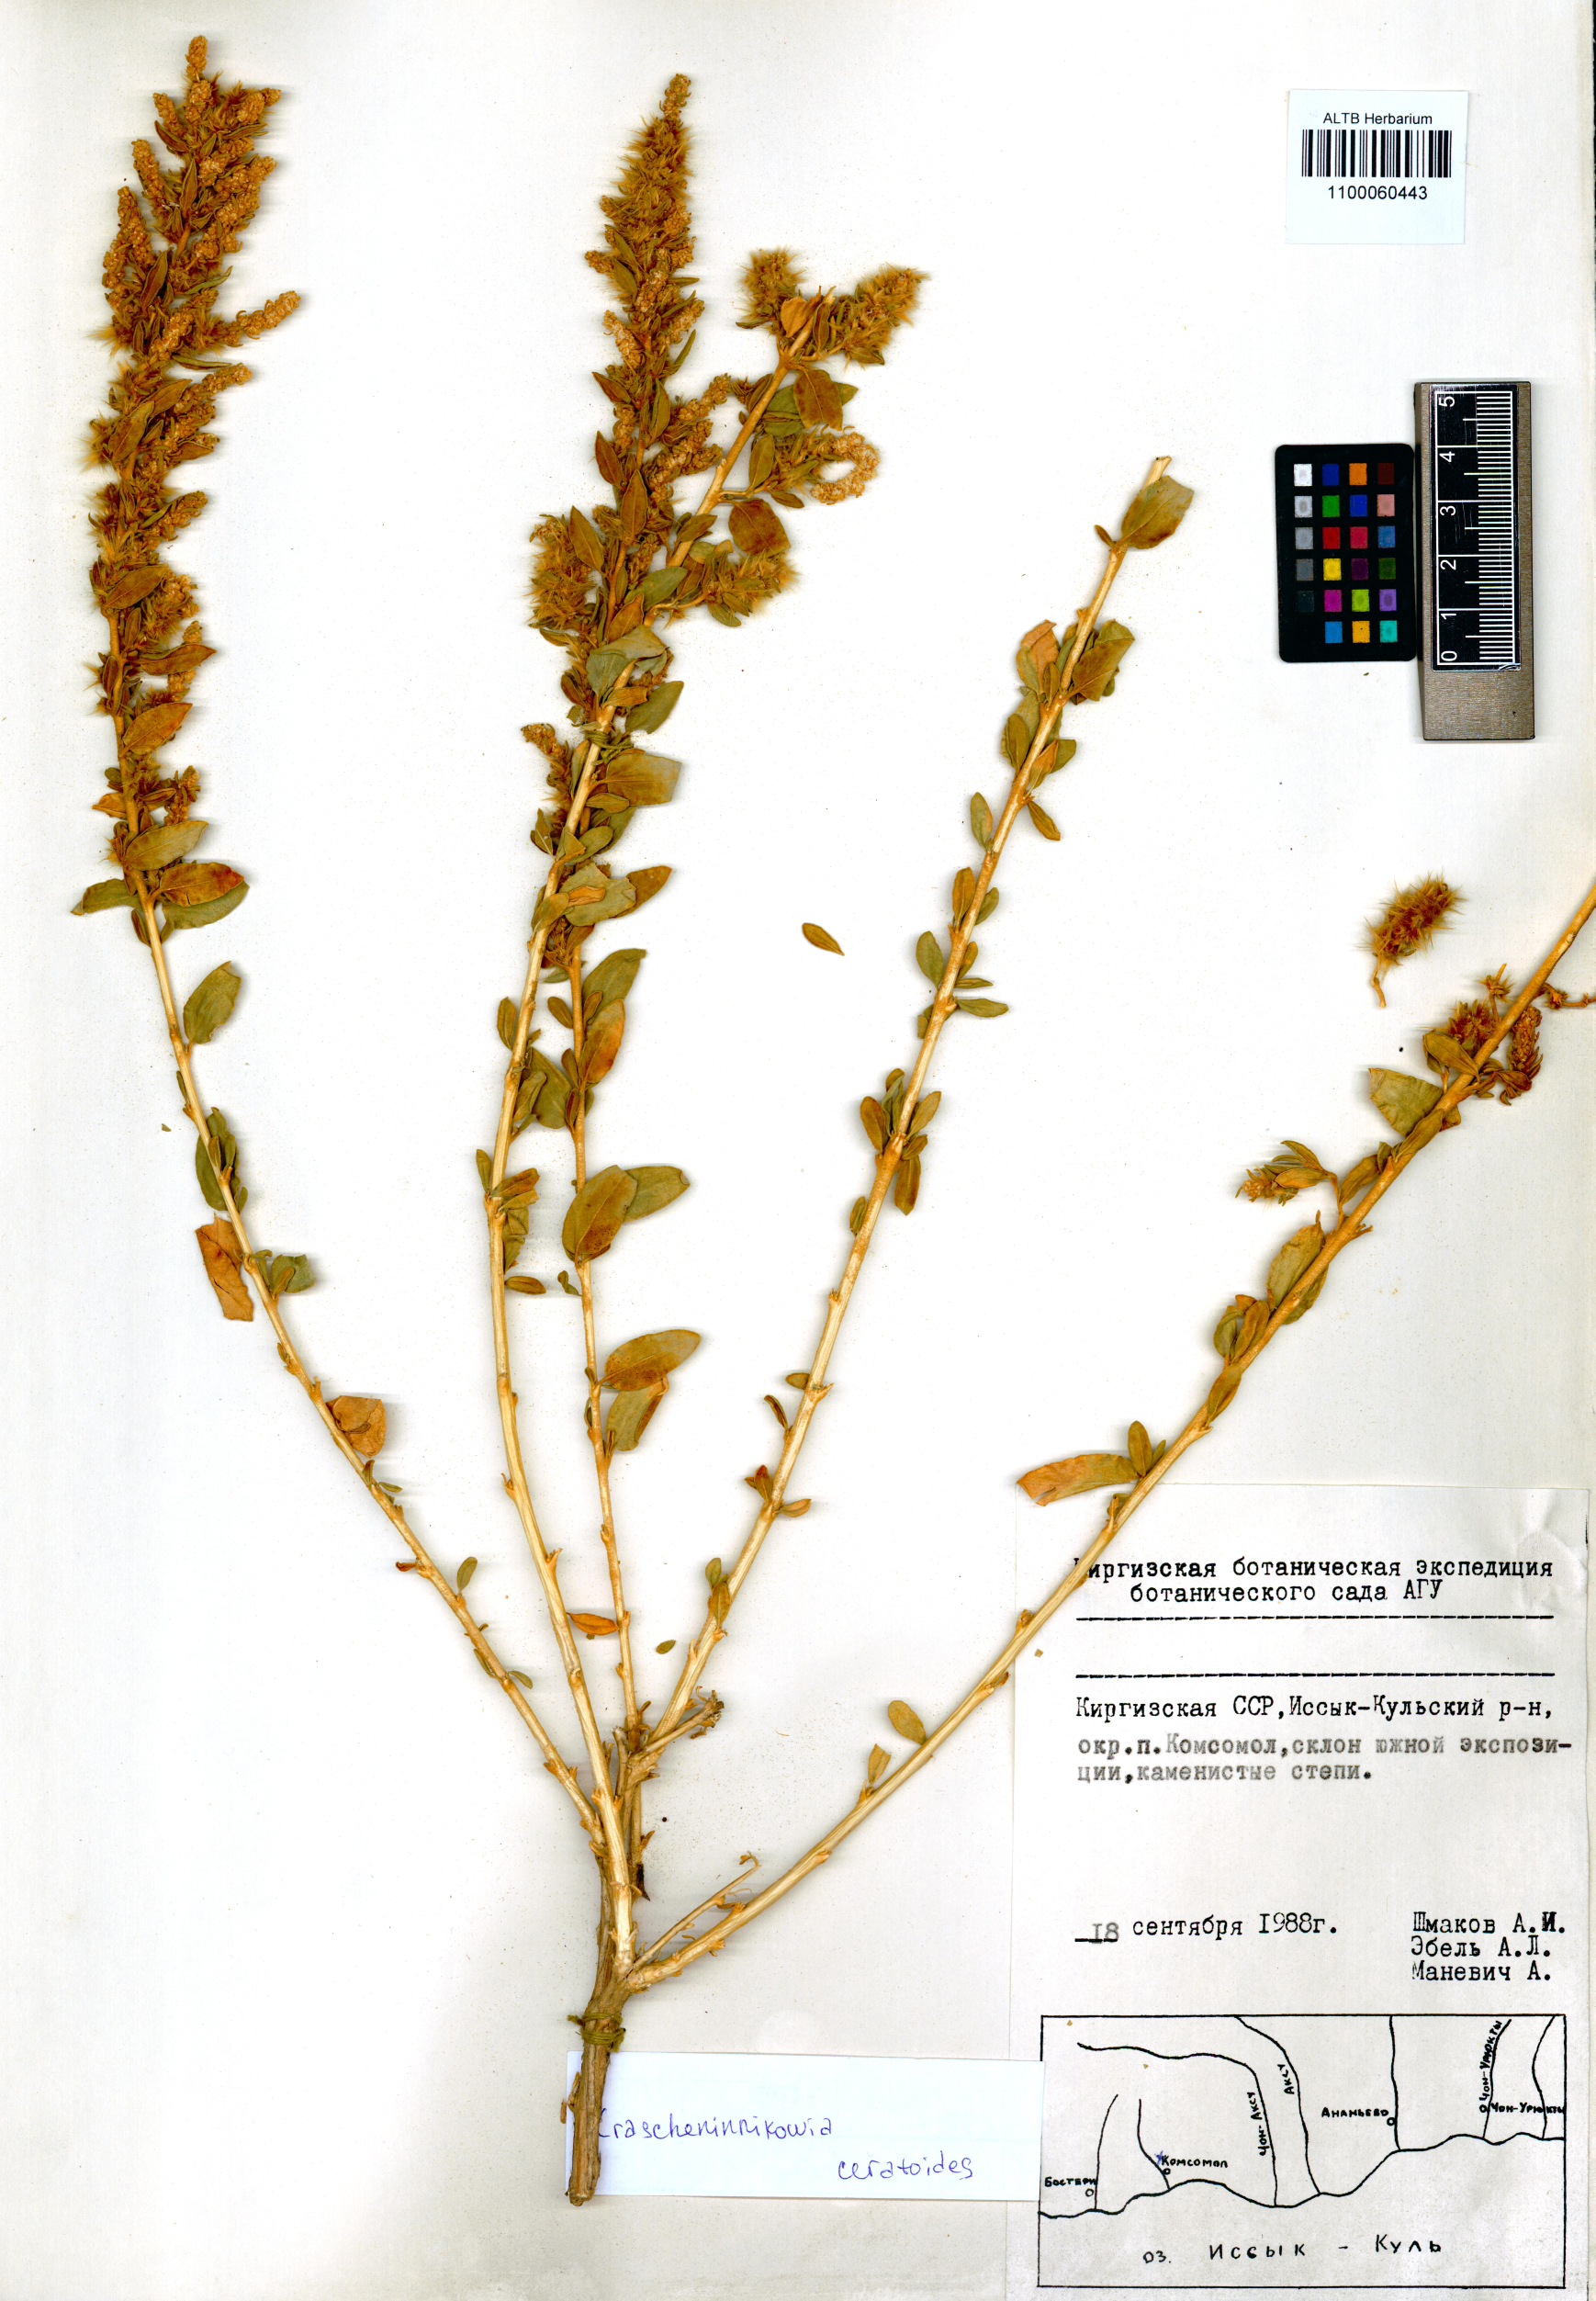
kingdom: Plantae
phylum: Tracheophyta
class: Magnoliopsida
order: Caryophyllales
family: Amaranthaceae
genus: Krascheninnikovia
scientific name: Krascheninnikovia ceratoides
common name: Pamirian winterfat
